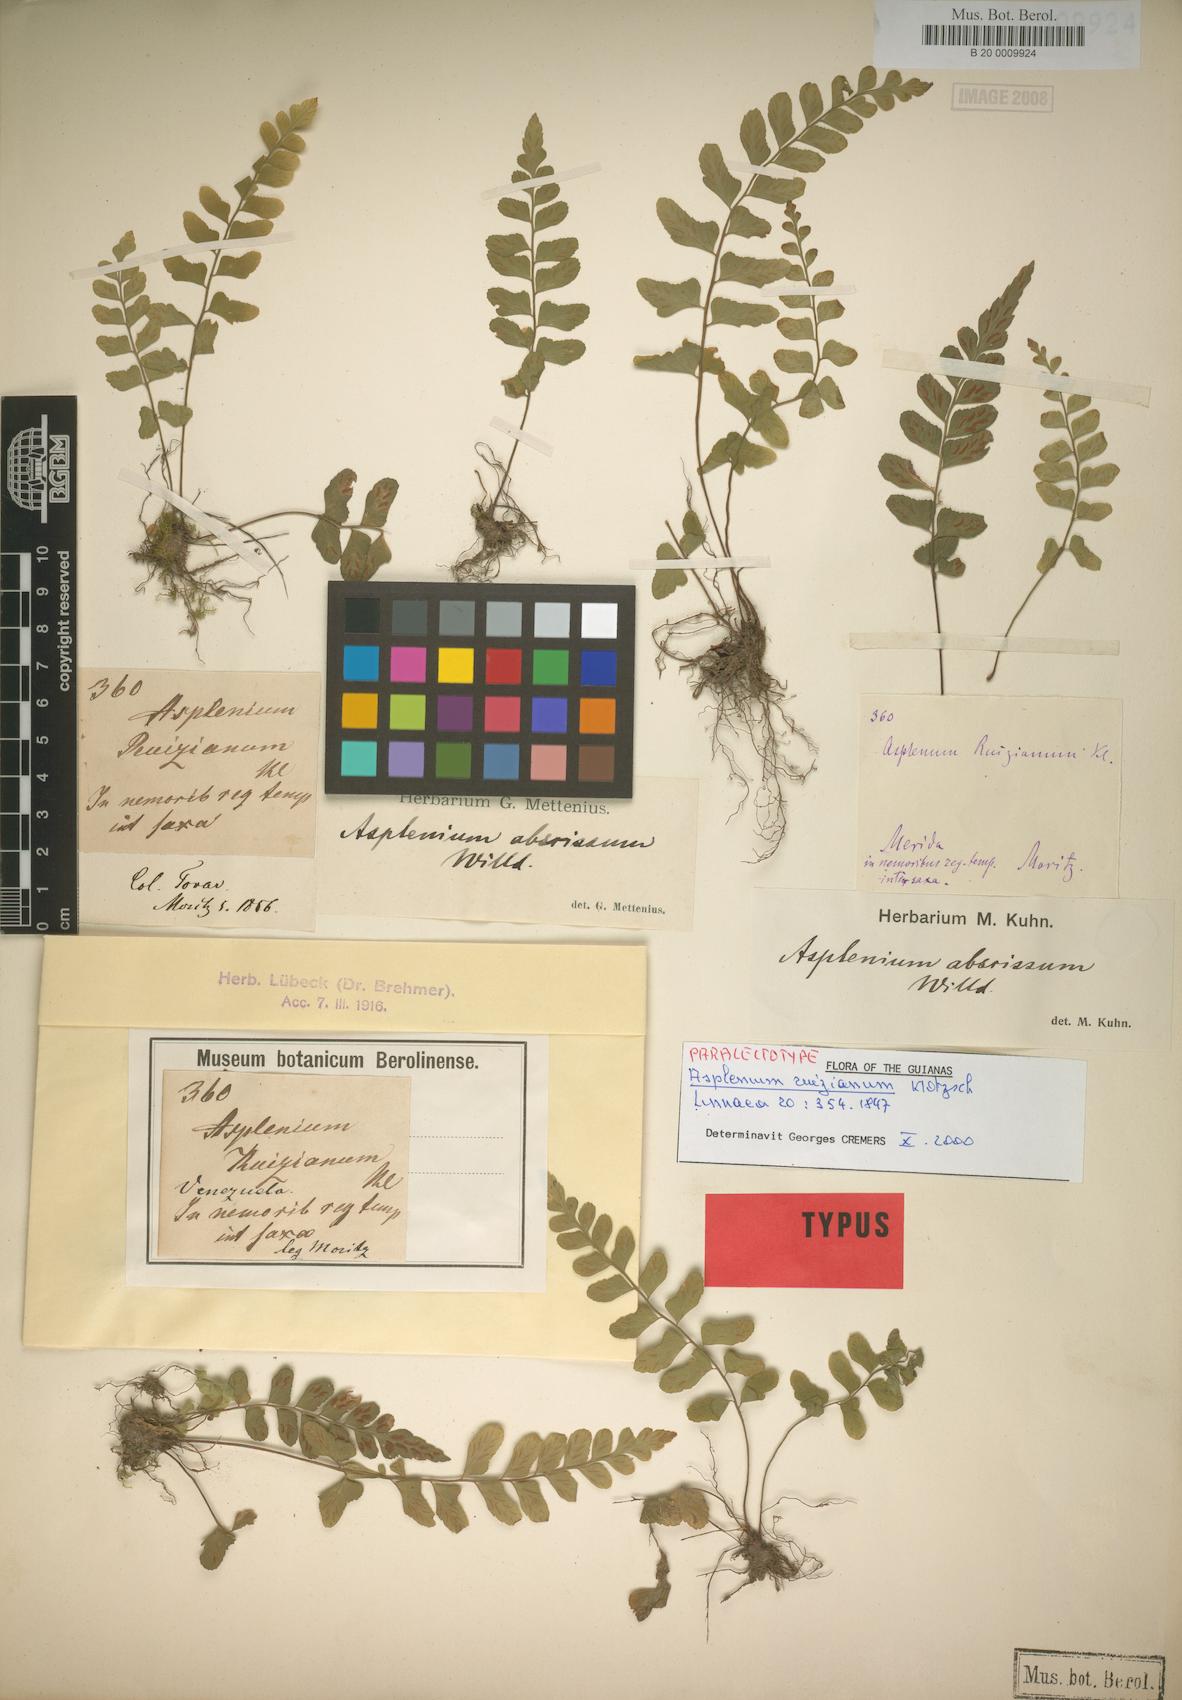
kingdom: Plantae
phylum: Tracheophyta
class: Polypodiopsida
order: Polypodiales
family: Aspleniaceae
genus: Asplenium
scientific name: Asplenium ruizianum
